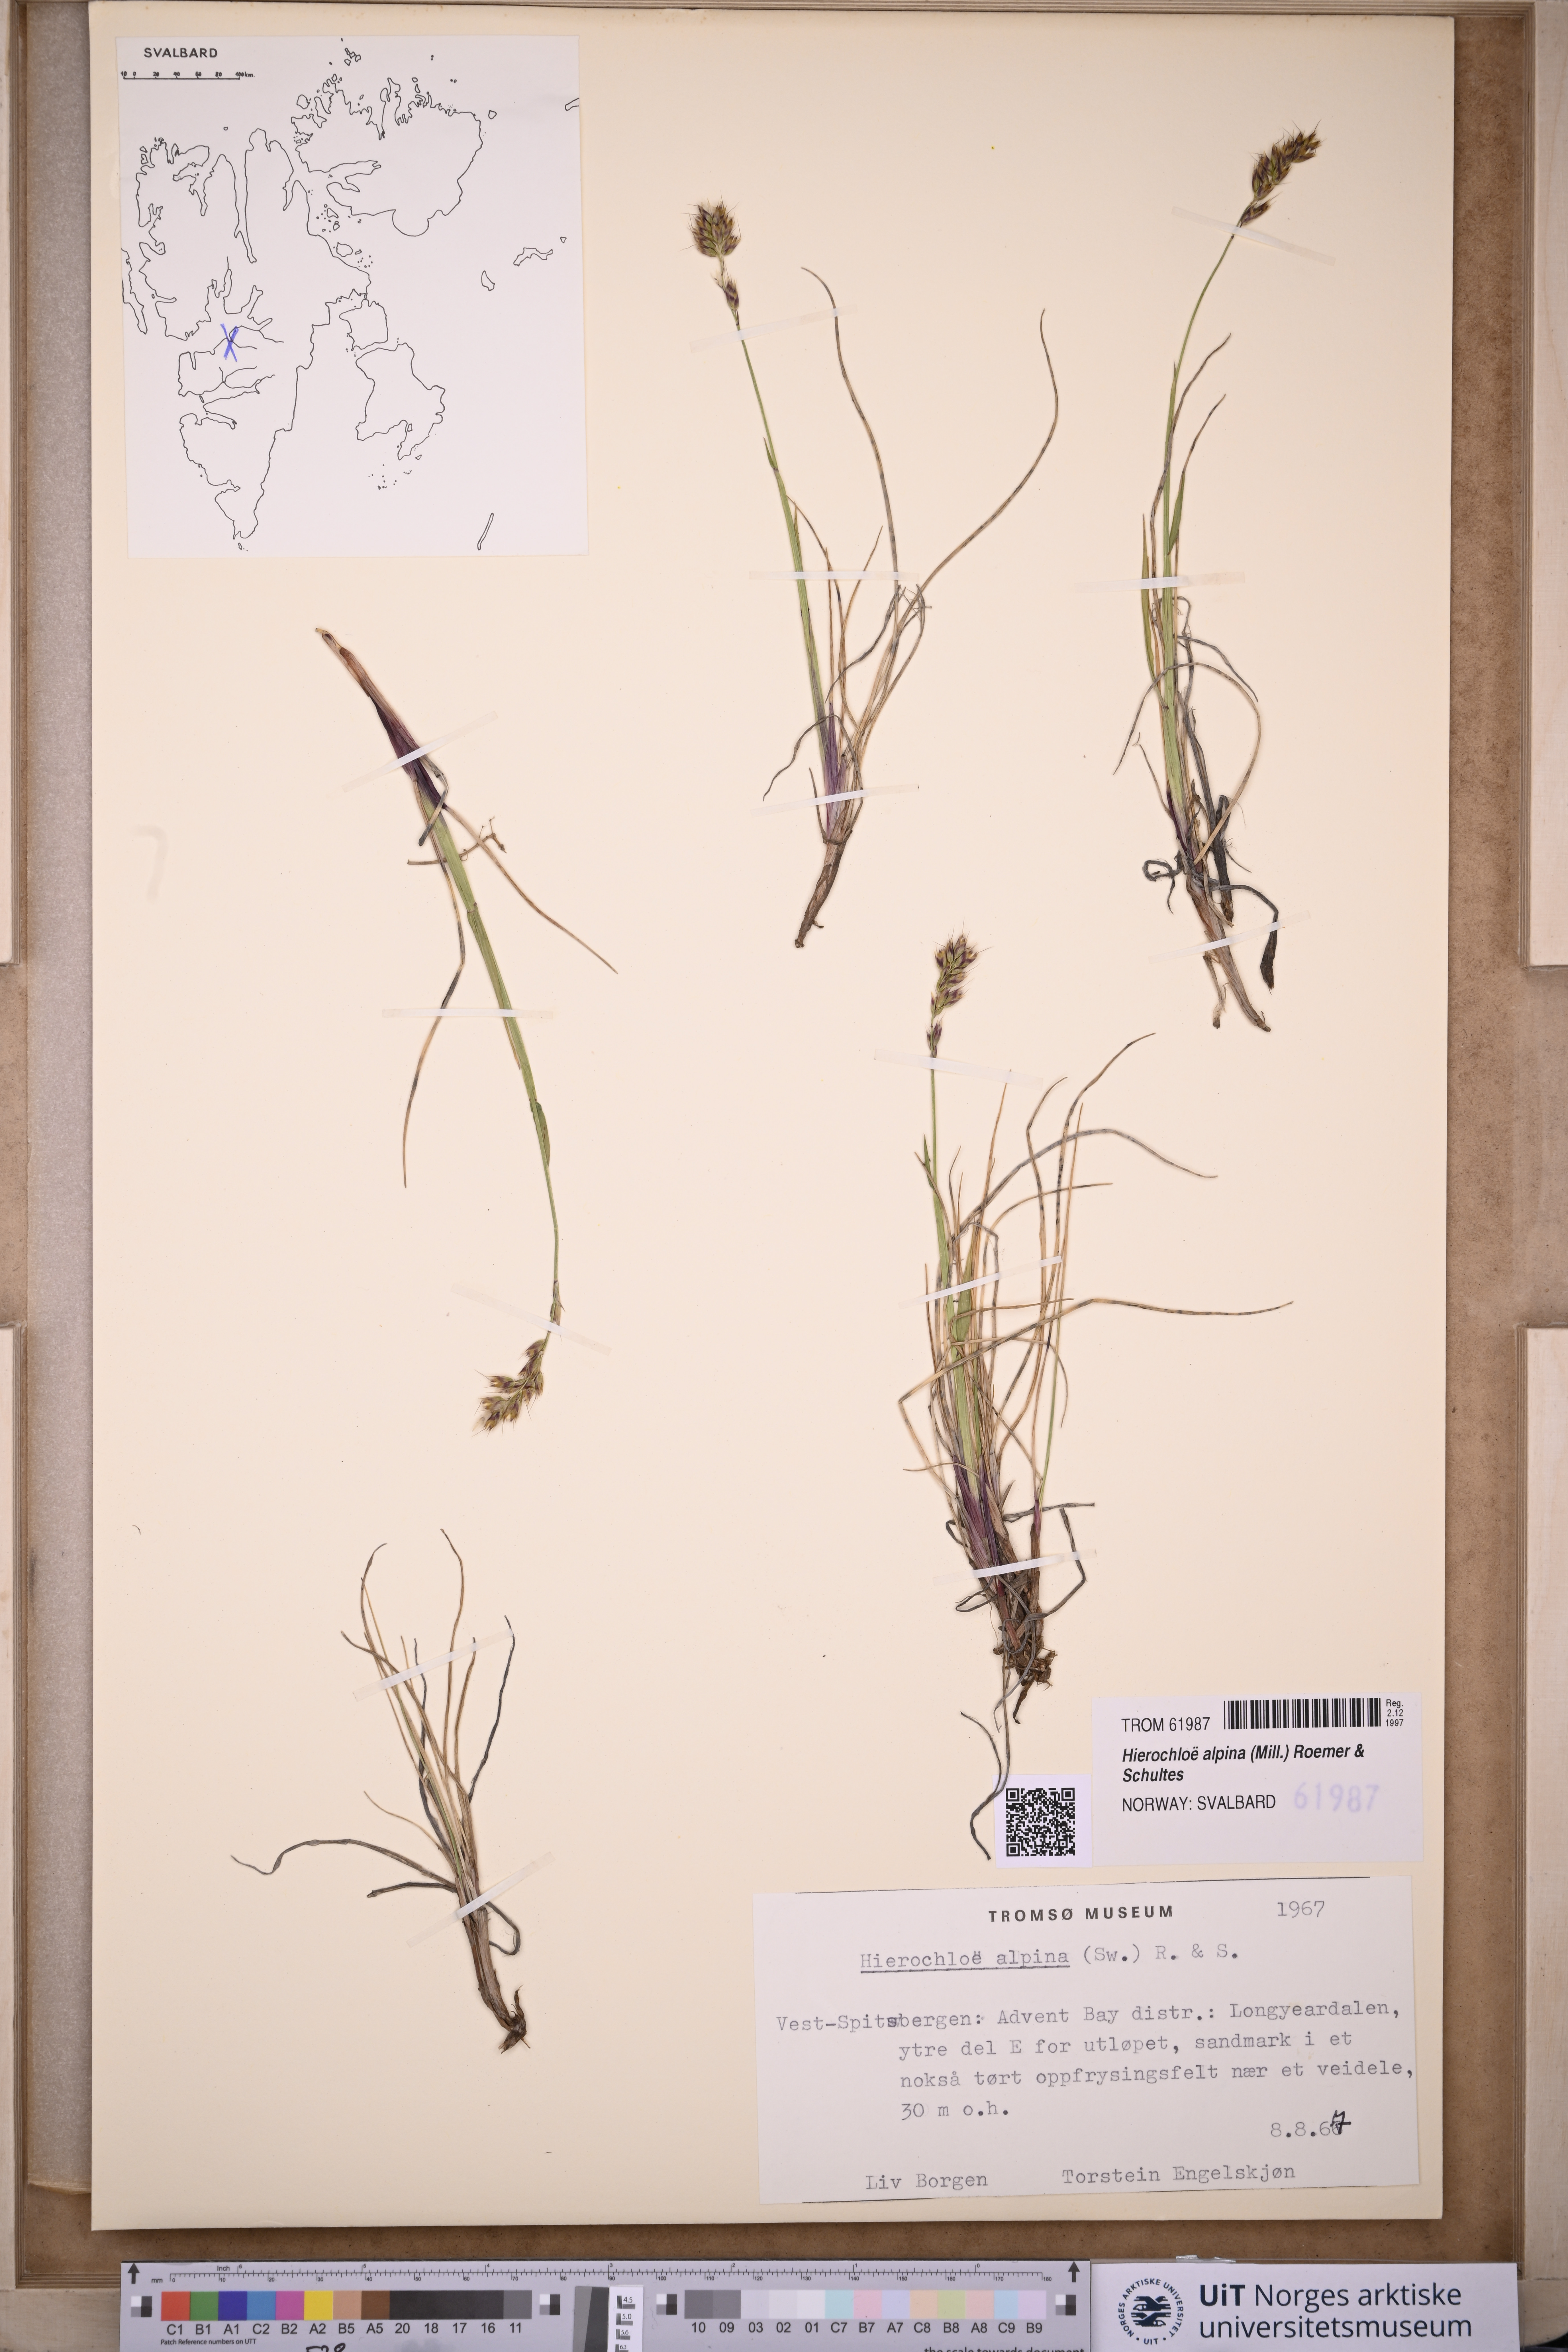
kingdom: Plantae
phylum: Tracheophyta
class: Liliopsida
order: Poales
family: Poaceae
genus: Anthoxanthum
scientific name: Anthoxanthum monticola
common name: Alpine sweetgrass
